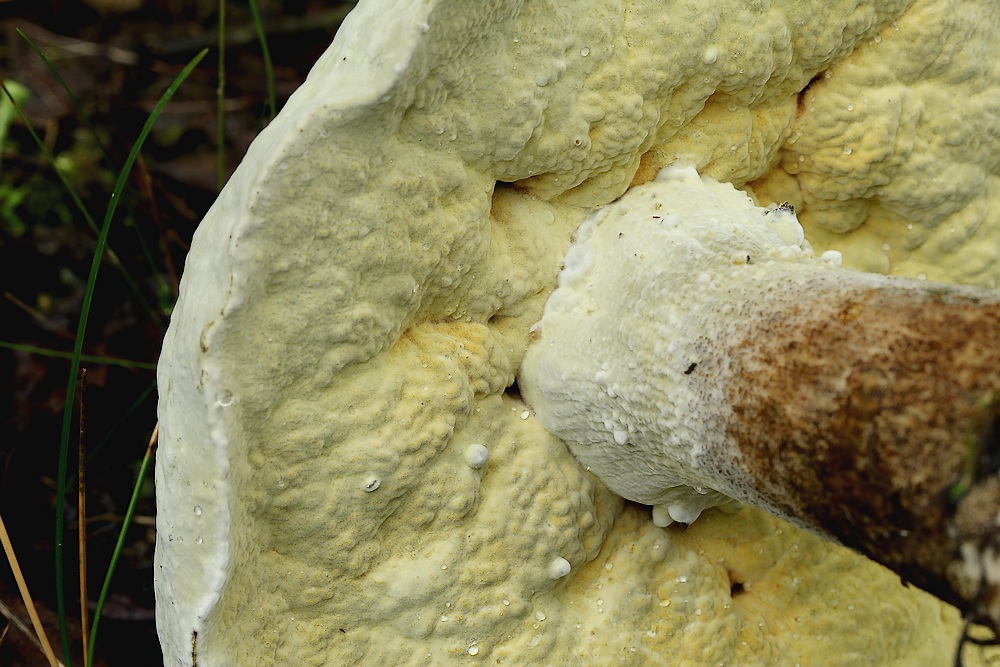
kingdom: Fungi
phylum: Ascomycota
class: Sordariomycetes
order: Hypocreales
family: Hypocreaceae
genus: Sepedonium
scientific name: Sepedonium laevigatum
